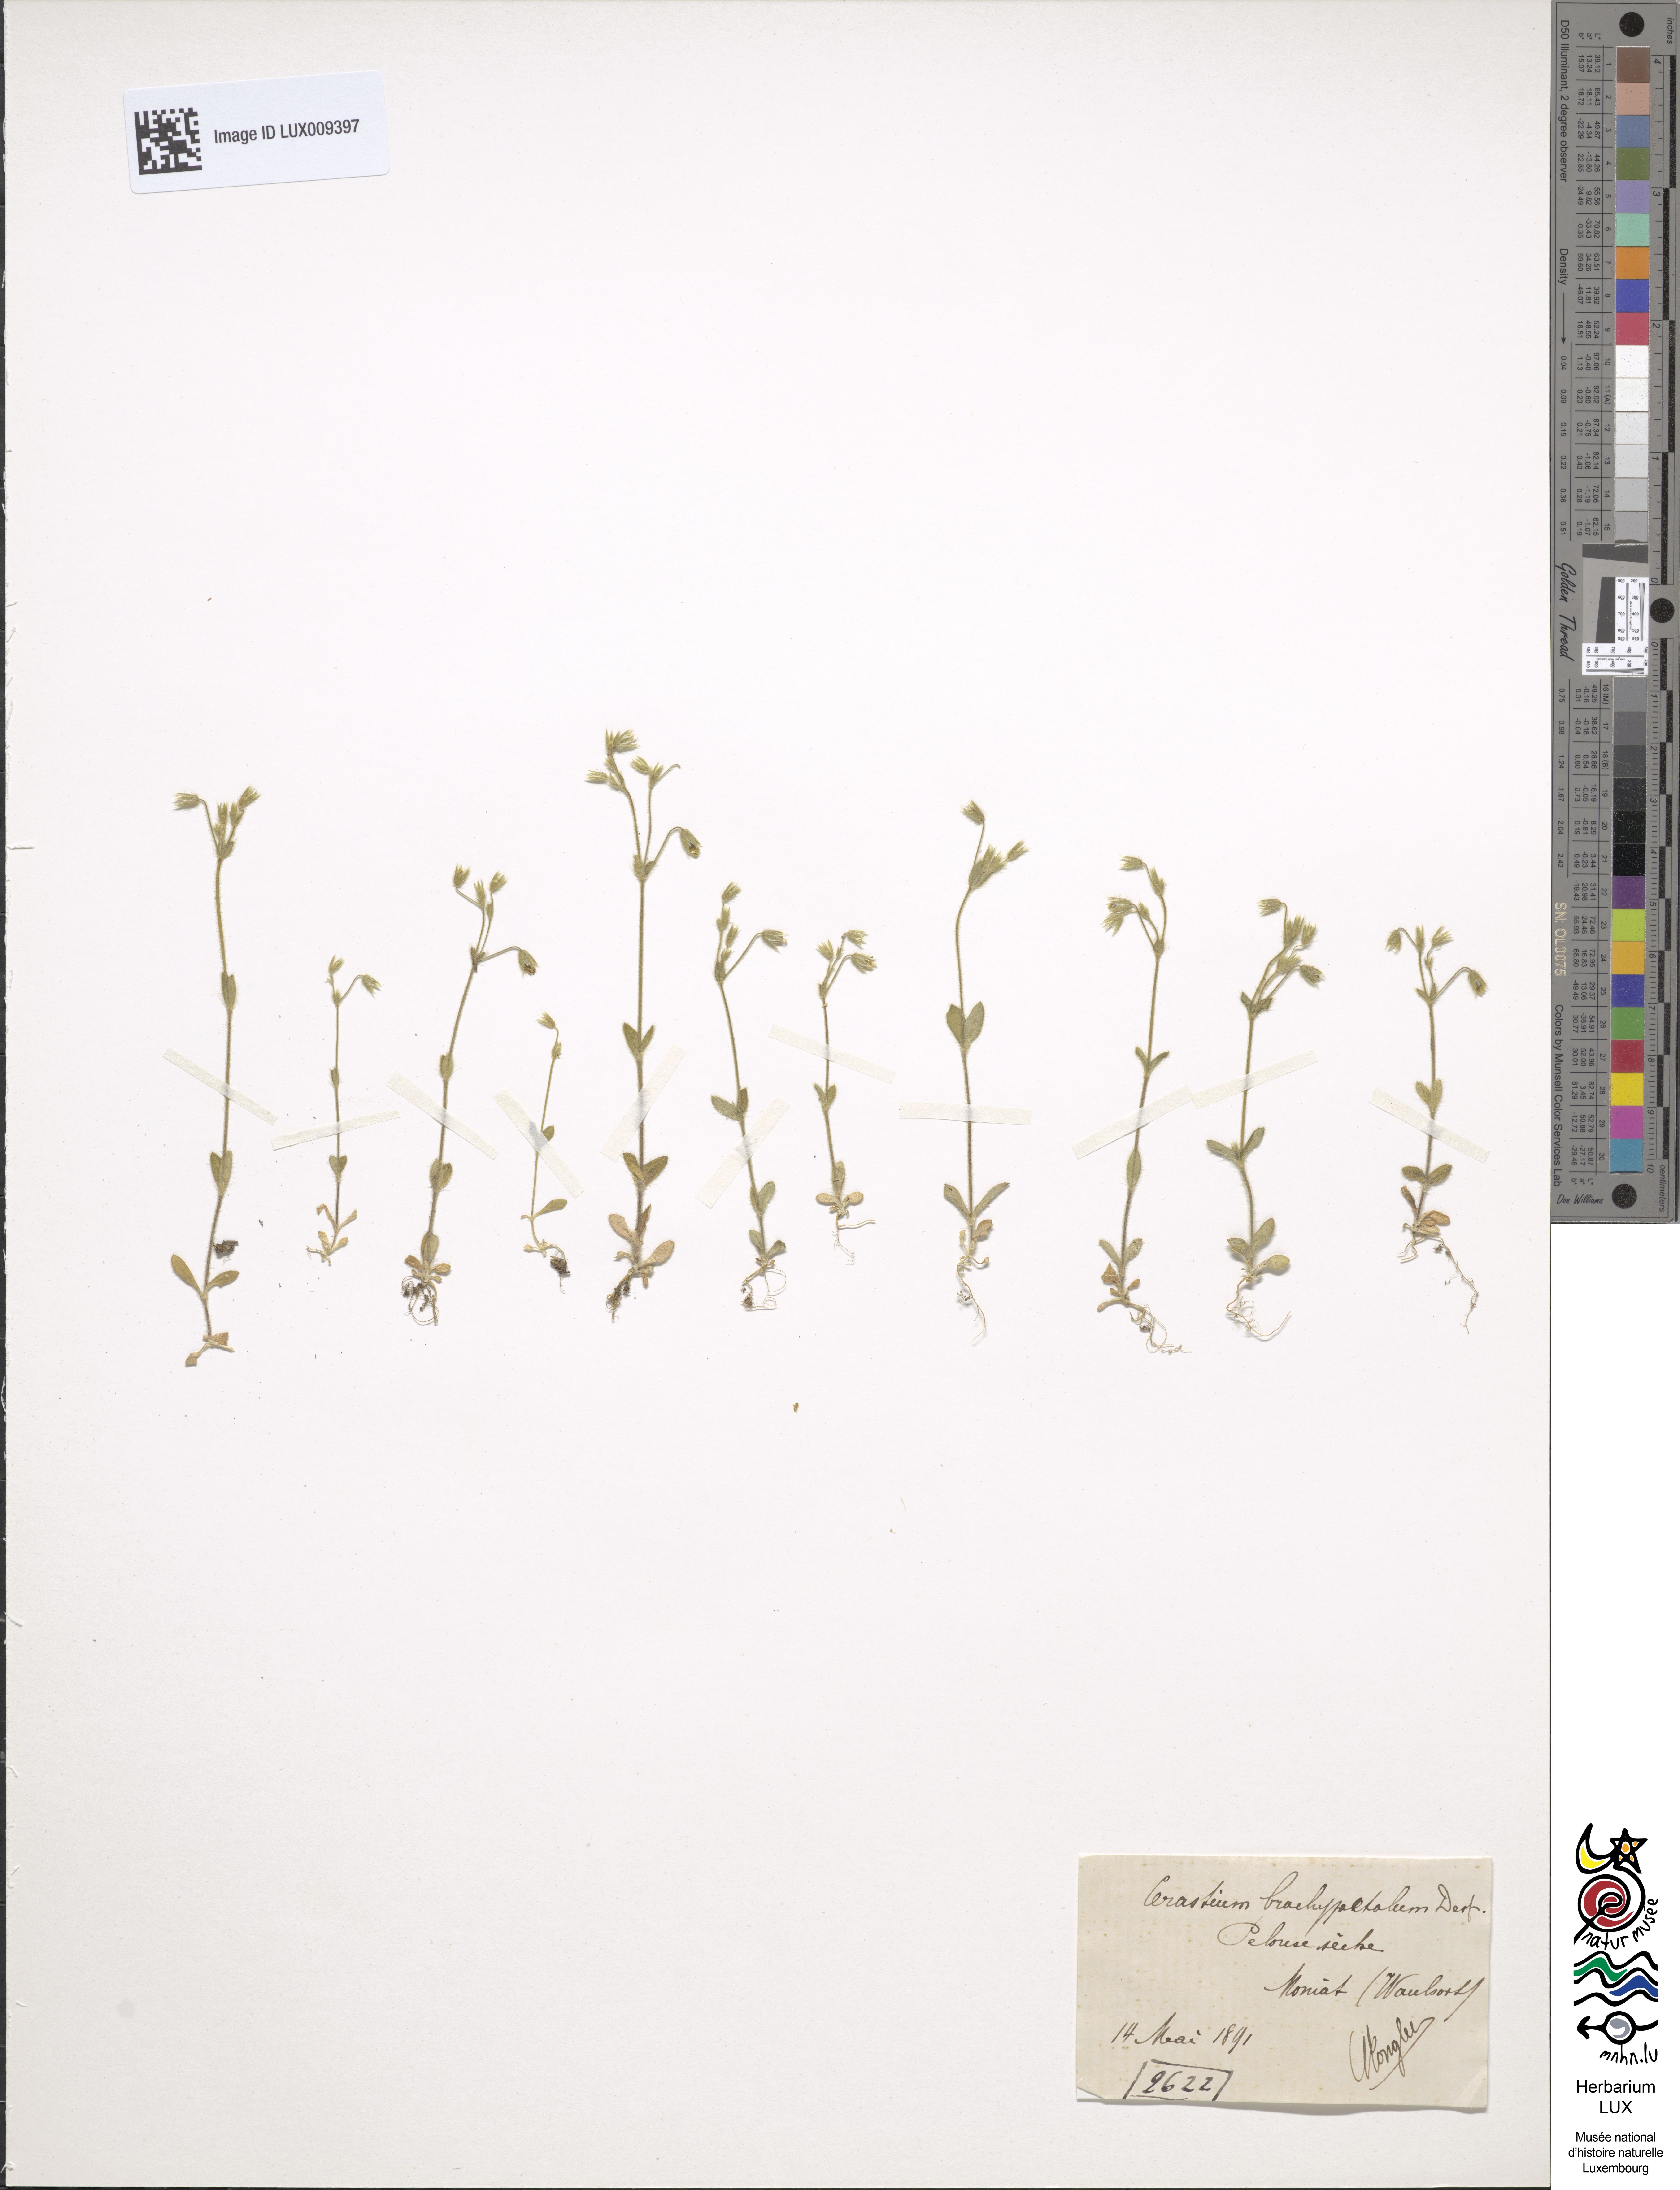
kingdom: Plantae
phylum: Tracheophyta
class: Magnoliopsida
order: Caryophyllales
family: Caryophyllaceae
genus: Cerastium
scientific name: Cerastium brachypetalum
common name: Grey mouse-ear
